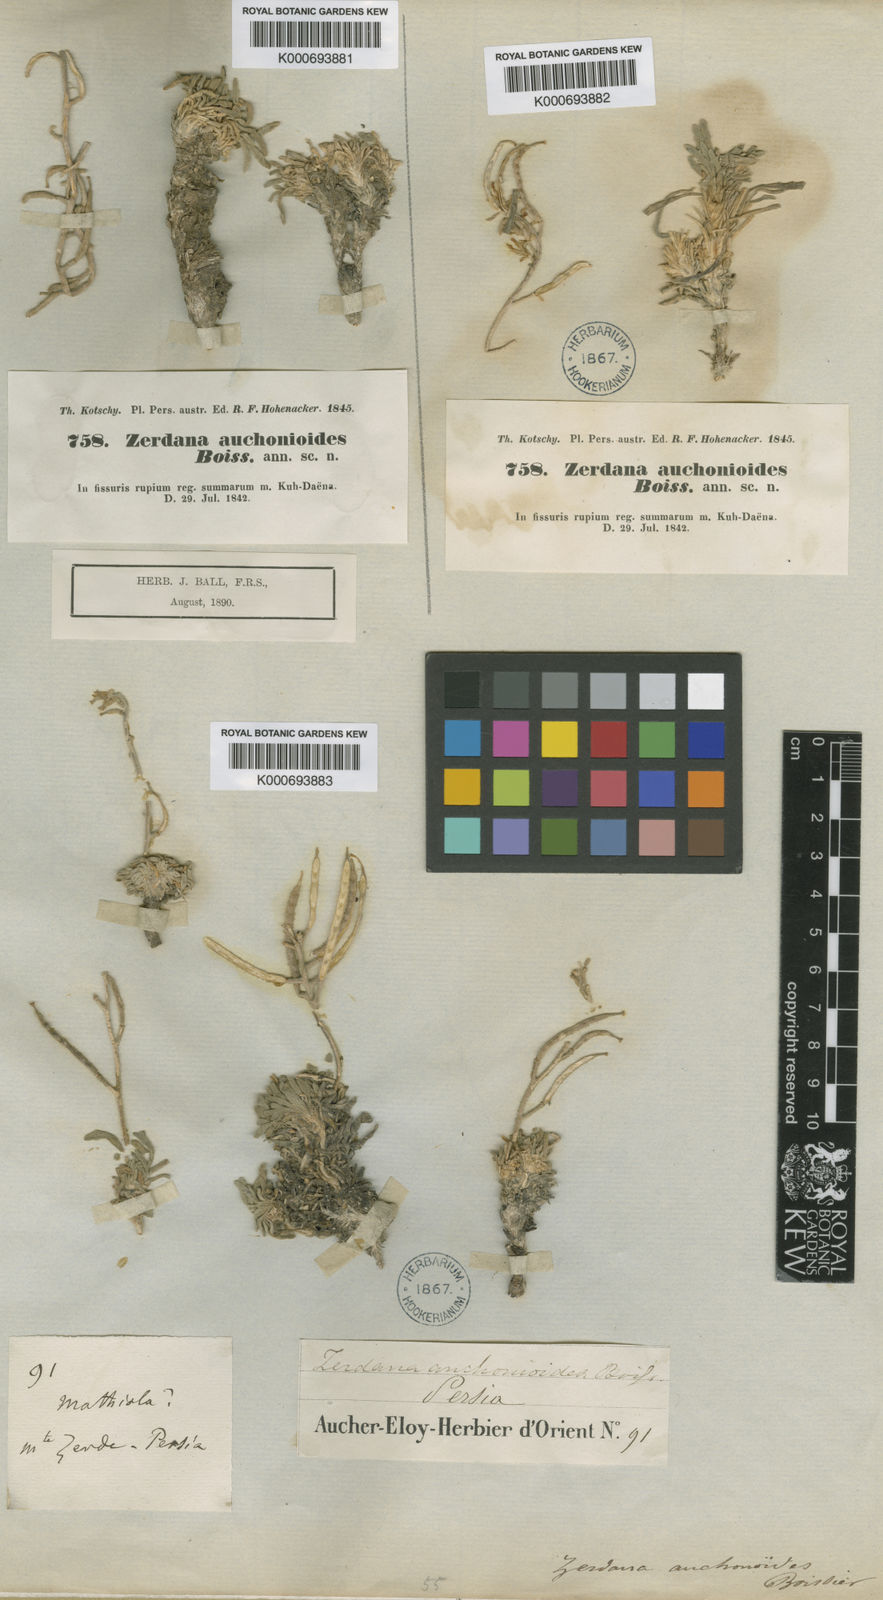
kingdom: Plantae
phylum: Tracheophyta
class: Magnoliopsida
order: Brassicales
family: Brassicaceae
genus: Zerdana
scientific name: Zerdana
